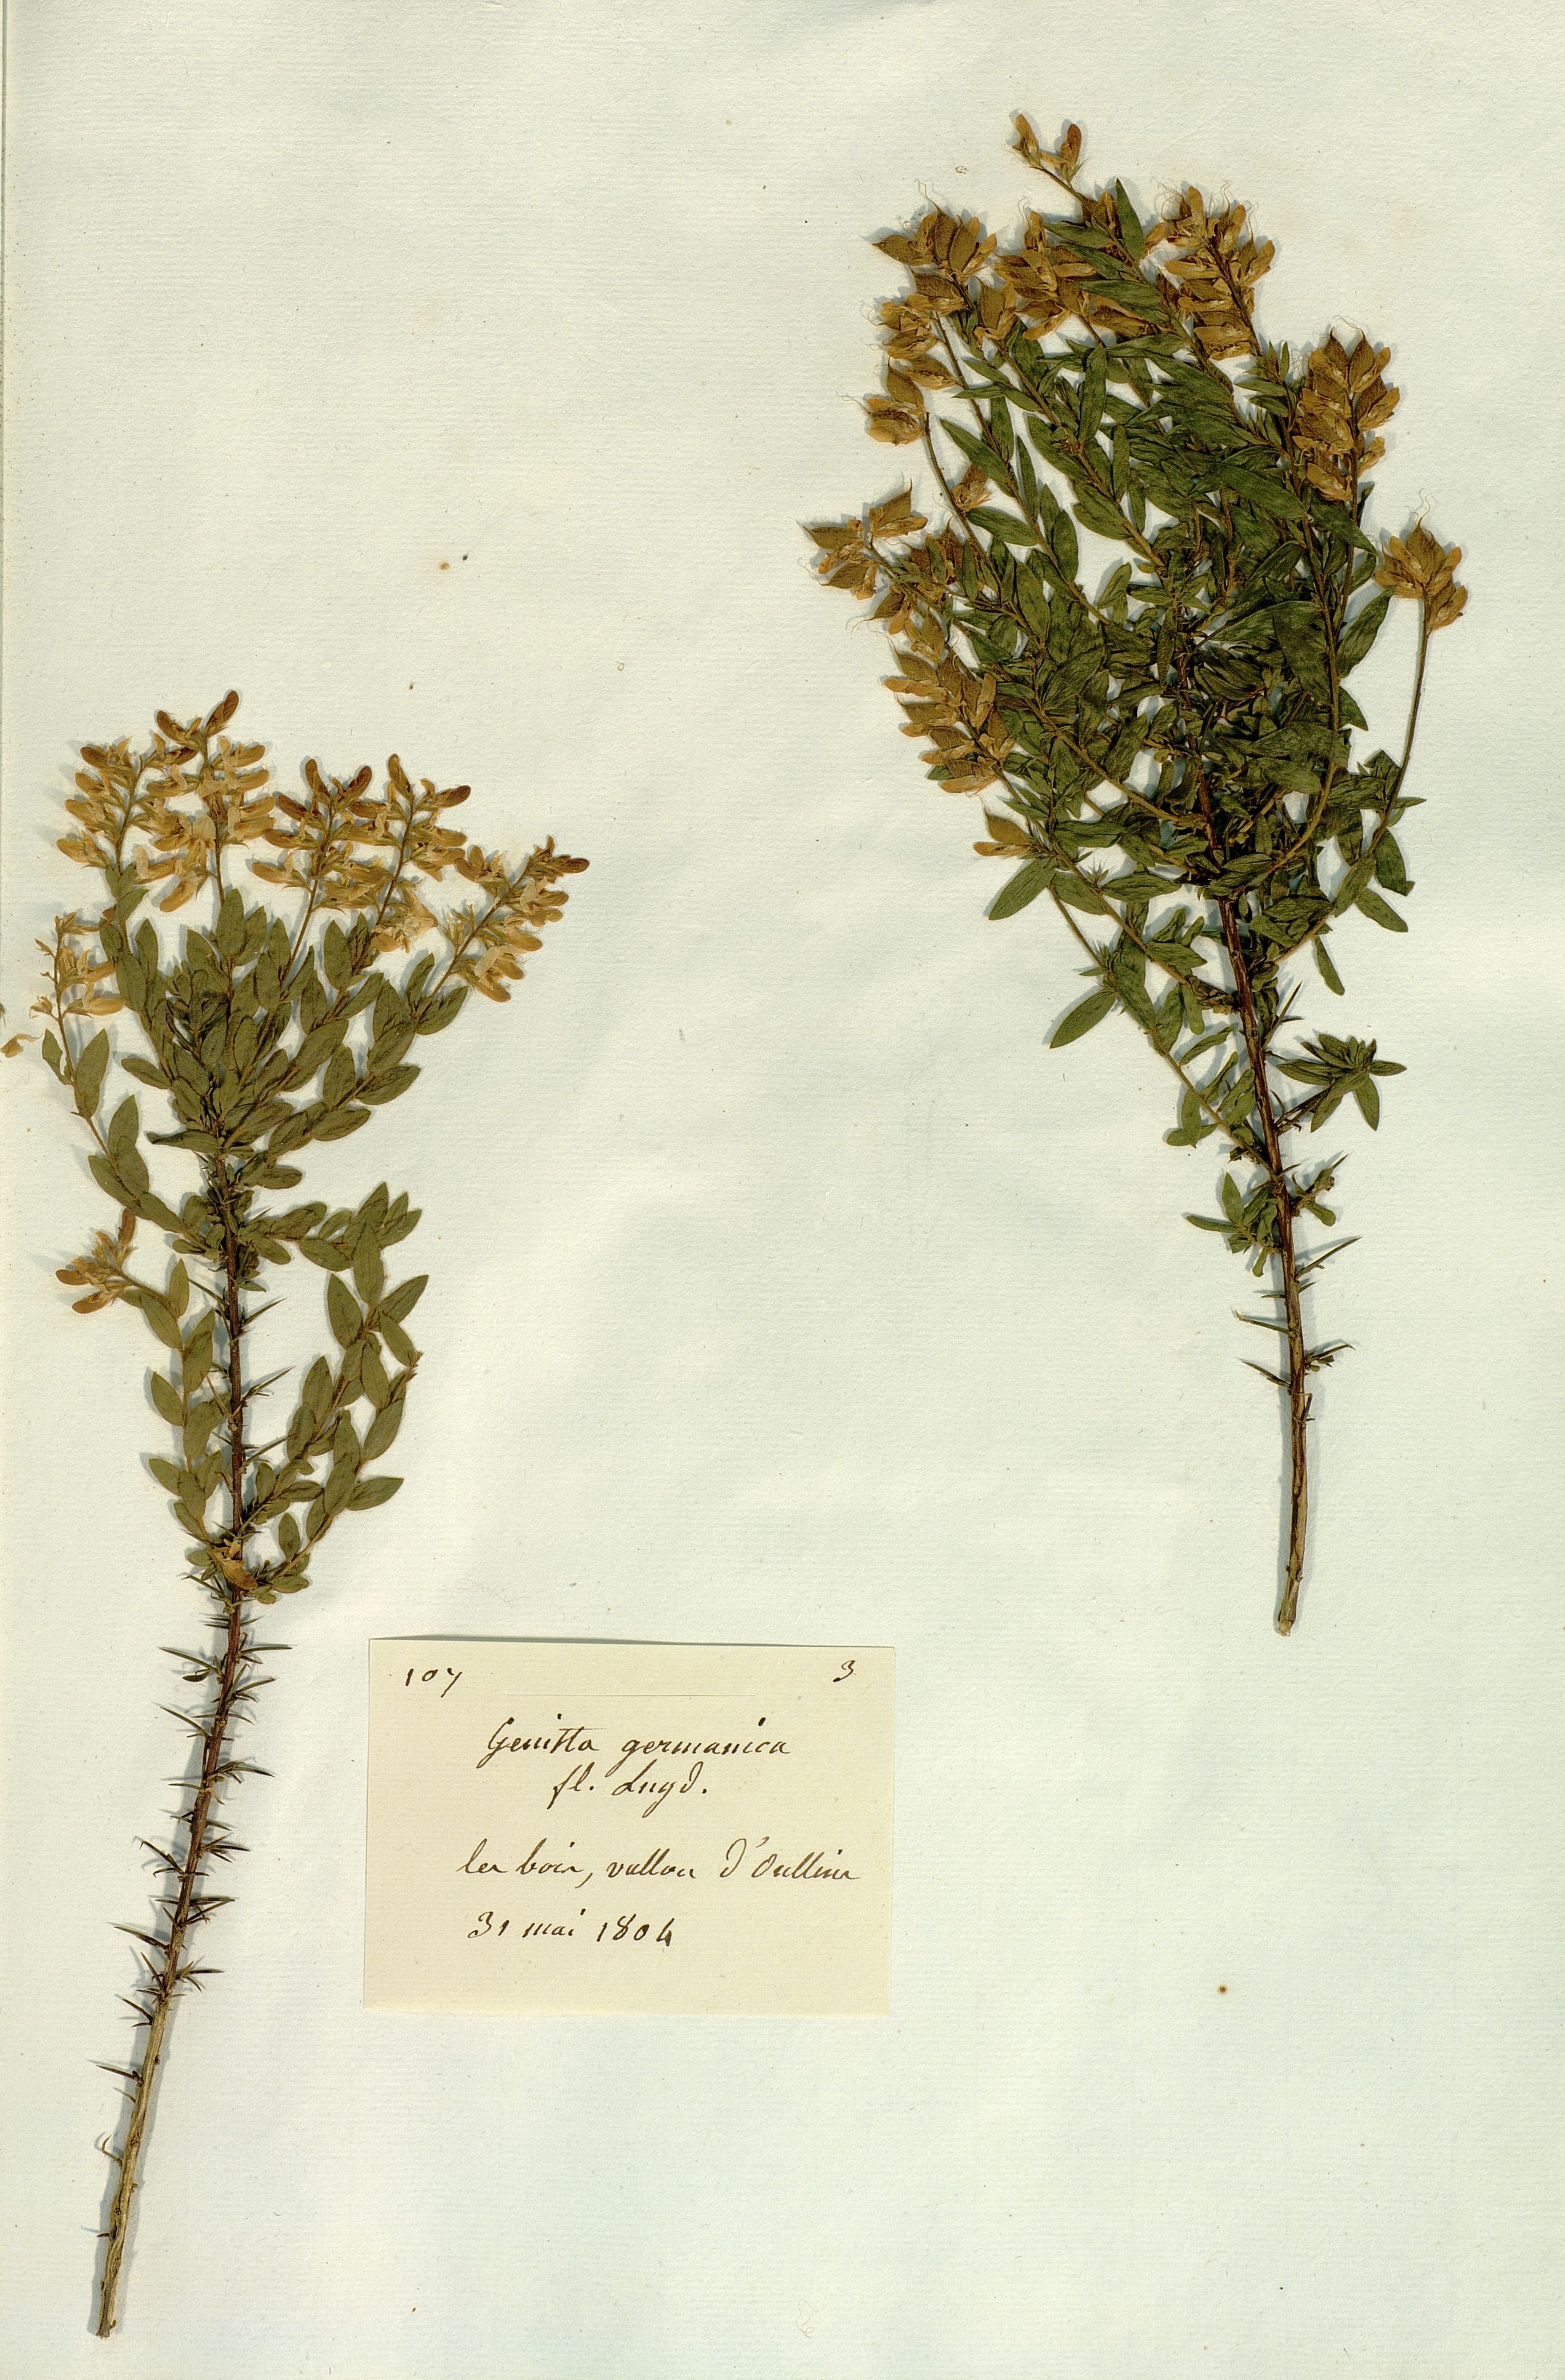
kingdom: Plantae
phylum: Tracheophyta
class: Magnoliopsida
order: Fabales
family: Fabaceae
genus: Genista
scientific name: Genista germanica
